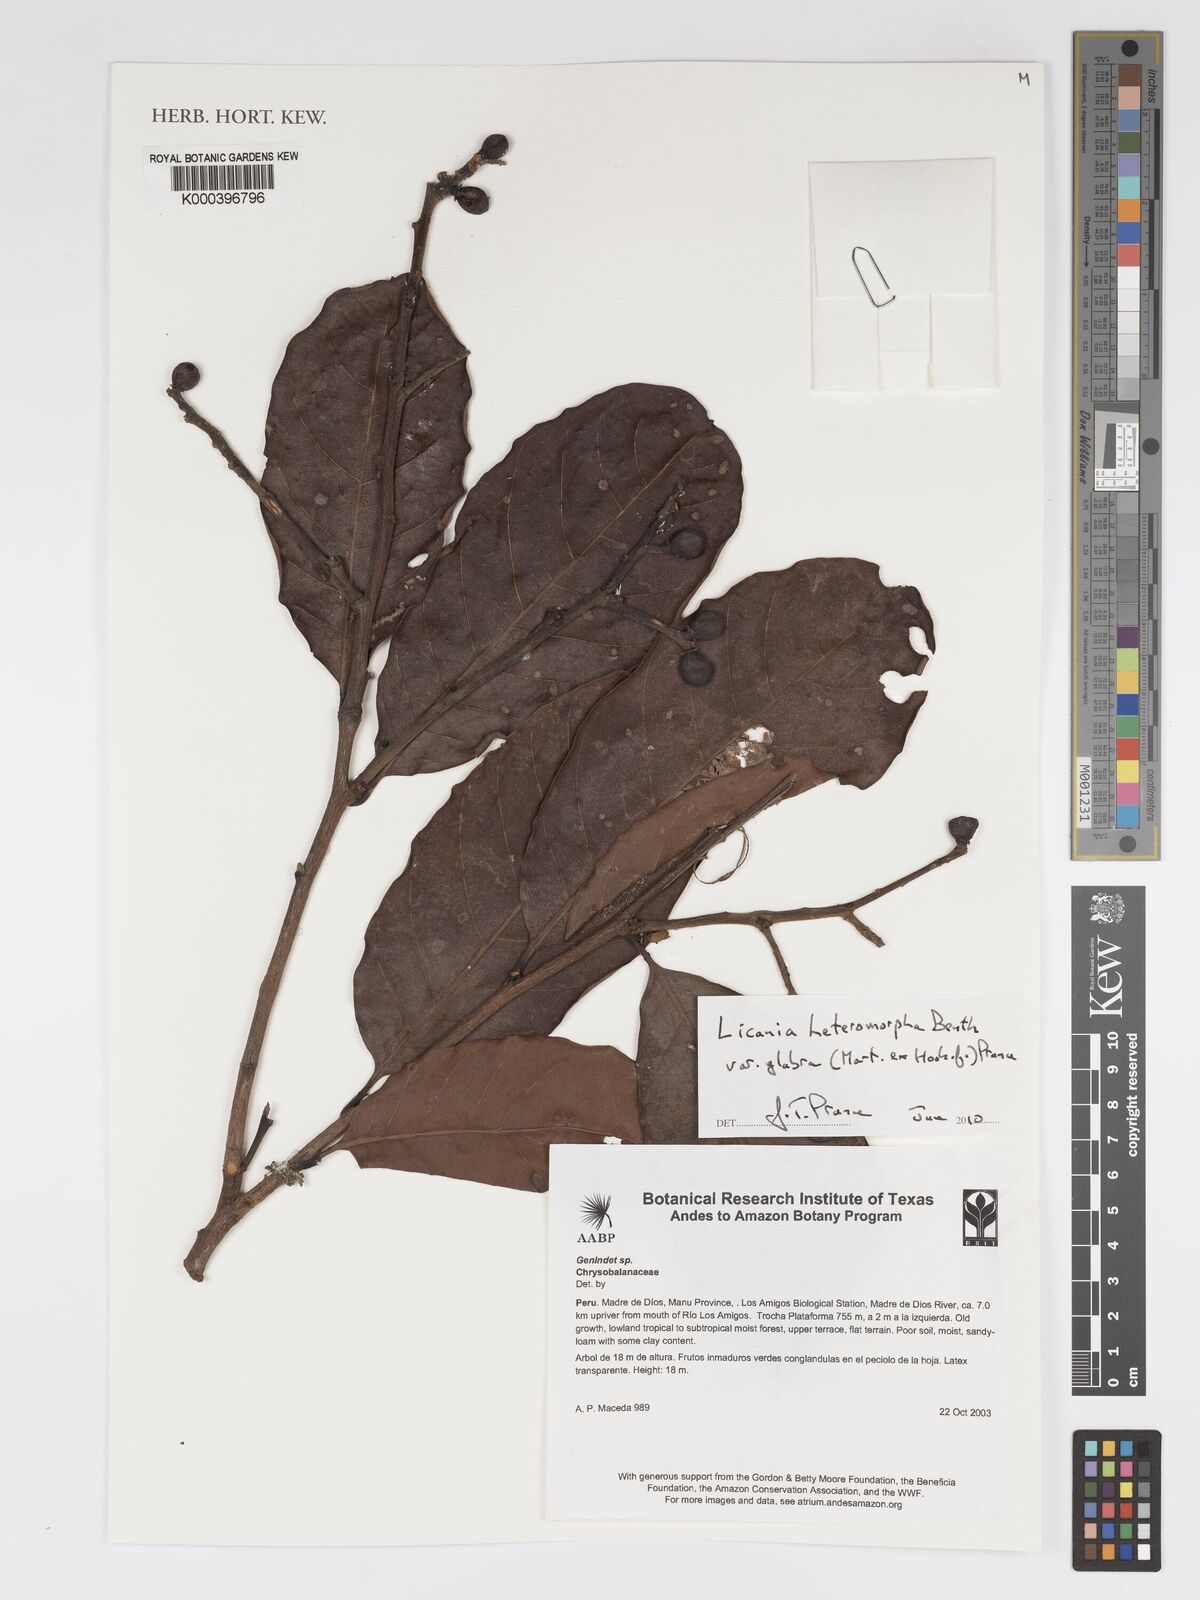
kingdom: Plantae
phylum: Tracheophyta
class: Magnoliopsida
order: Malpighiales
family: Chrysobalanaceae
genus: Licania
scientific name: Licania heteromorpha
